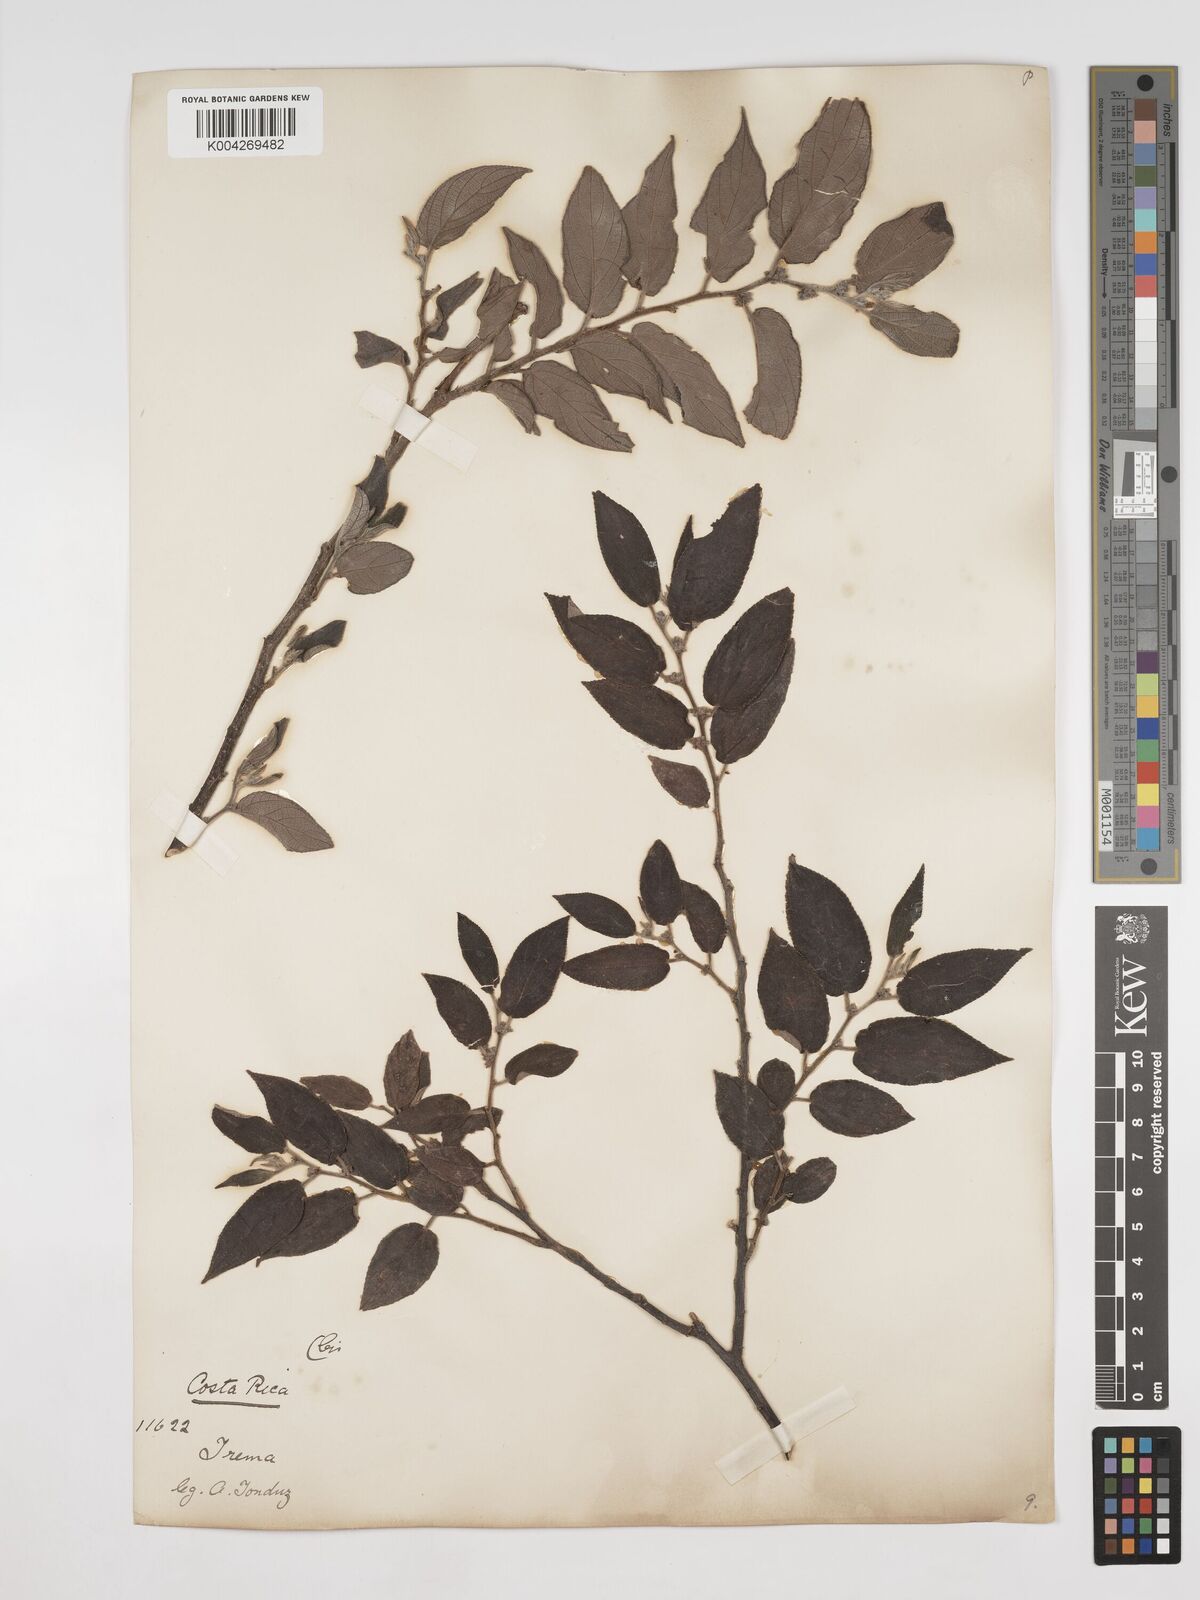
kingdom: Plantae
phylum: Tracheophyta
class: Magnoliopsida
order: Rosales
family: Cannabaceae
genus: Trema
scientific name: Trema micranthum
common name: Jamaican nettletree
